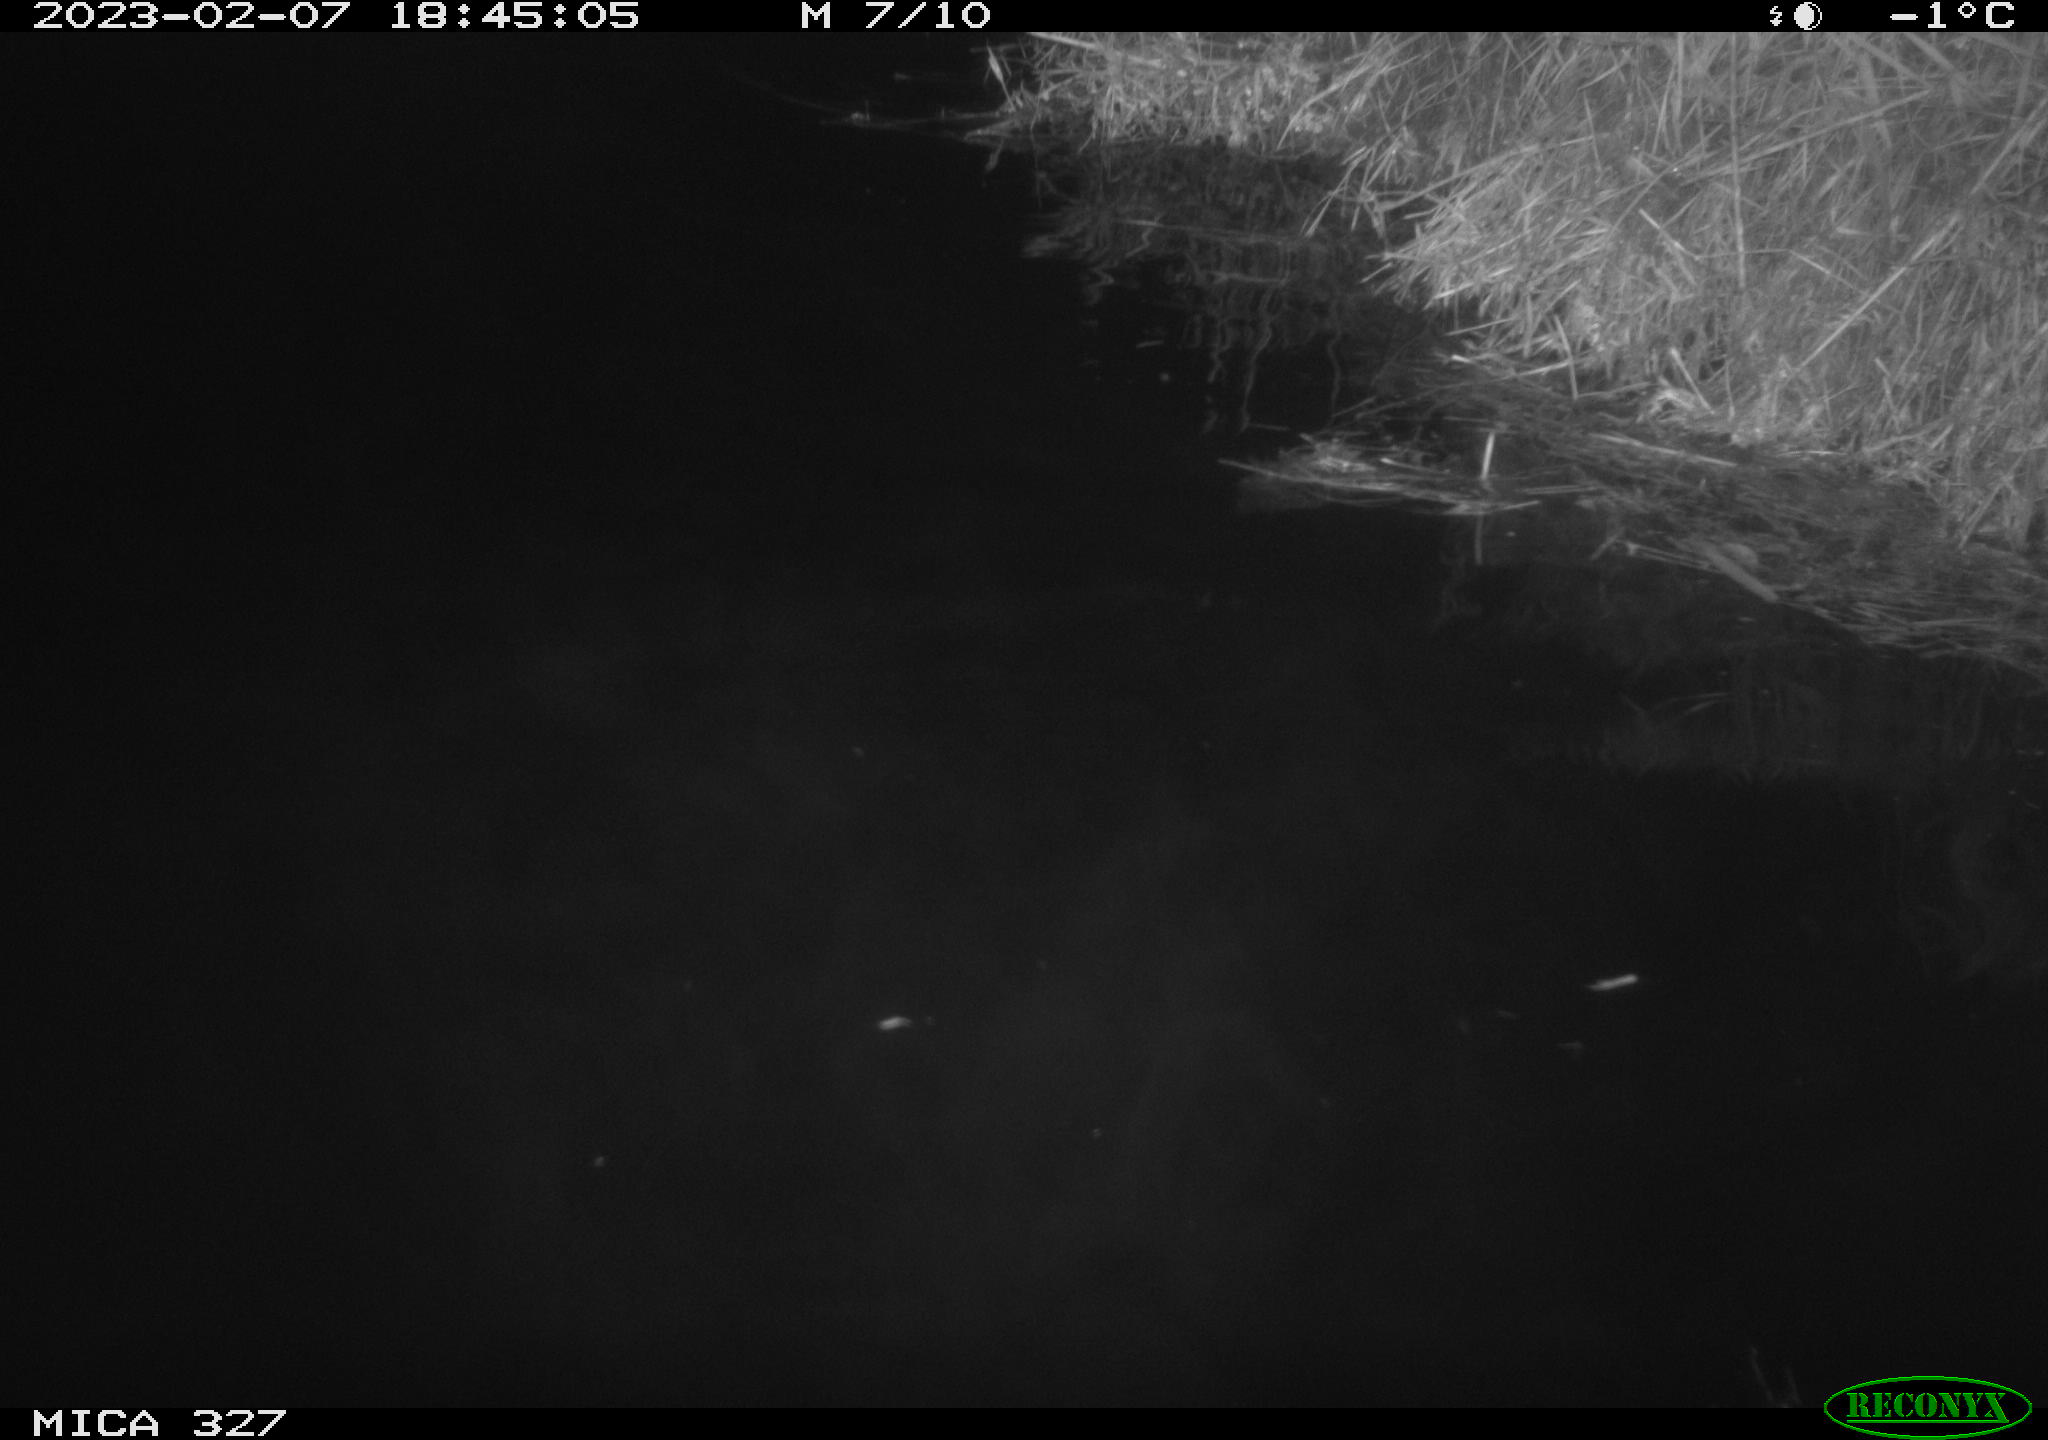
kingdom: Animalia
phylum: Chordata
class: Mammalia
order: Rodentia
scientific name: Rodentia
